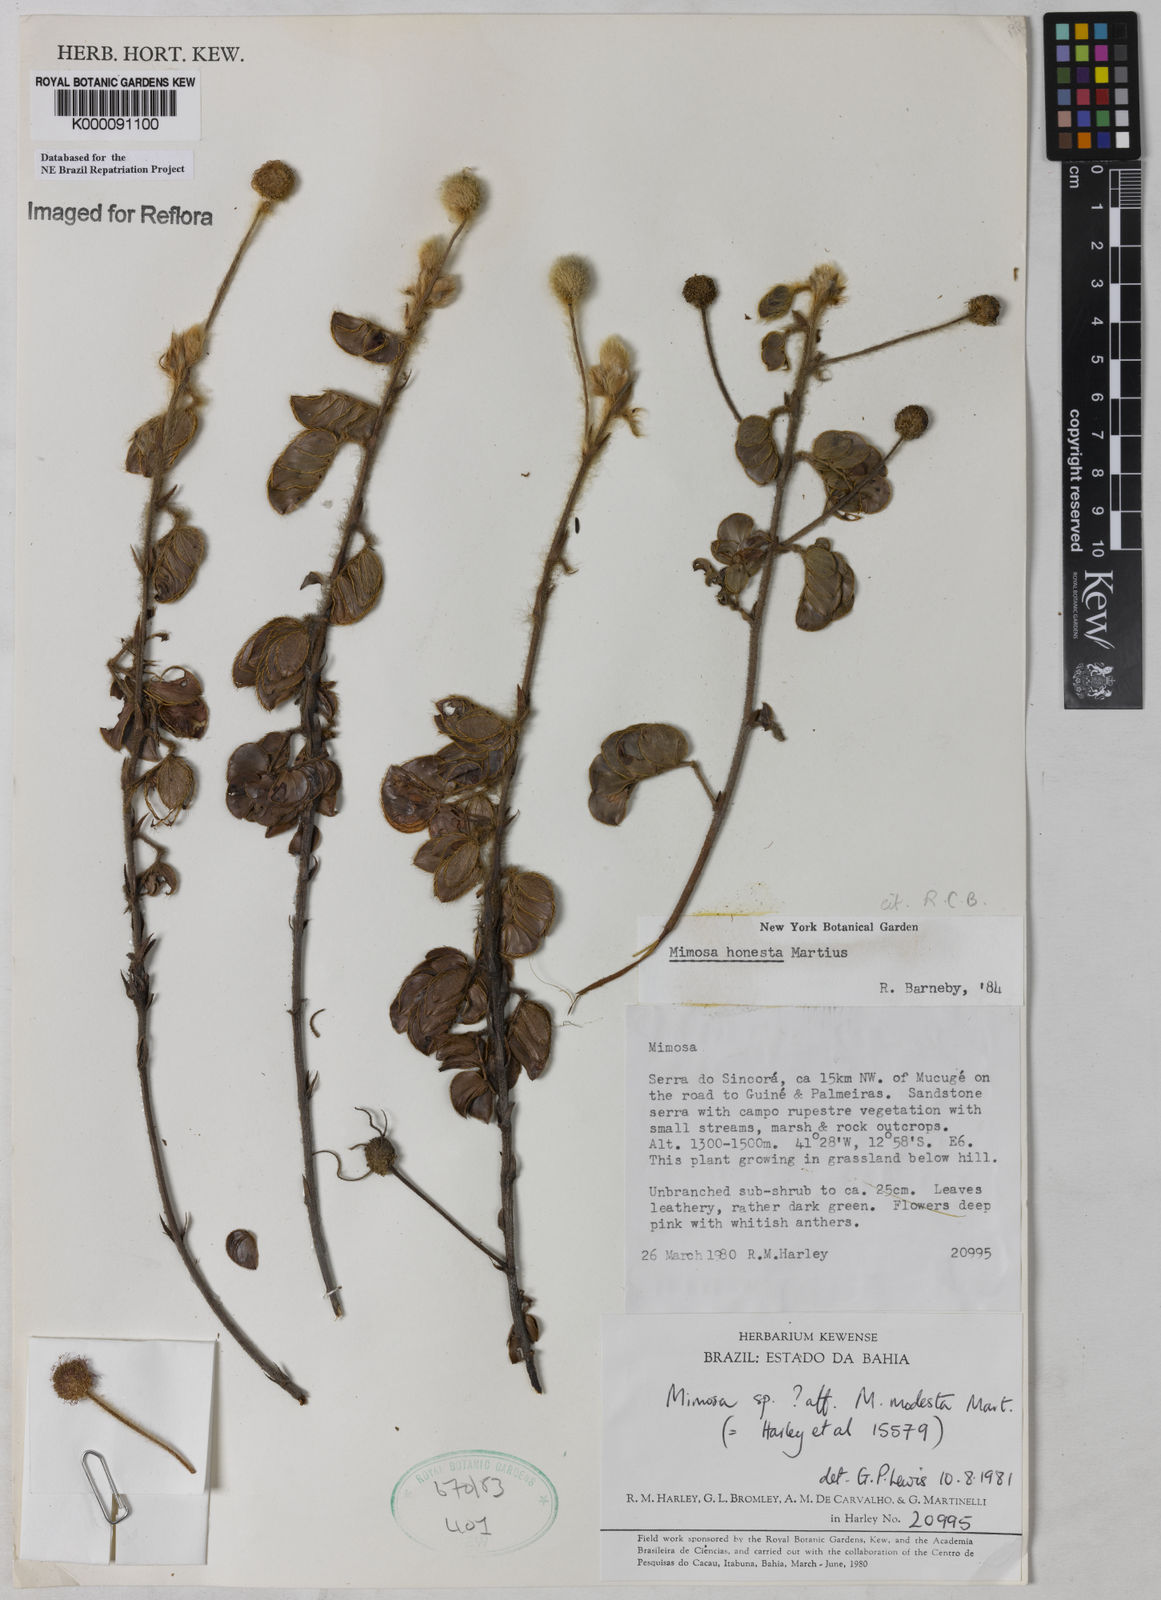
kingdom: Plantae
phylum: Tracheophyta
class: Magnoliopsida
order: Fabales
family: Fabaceae
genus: Mimosa
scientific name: Mimosa honesta
